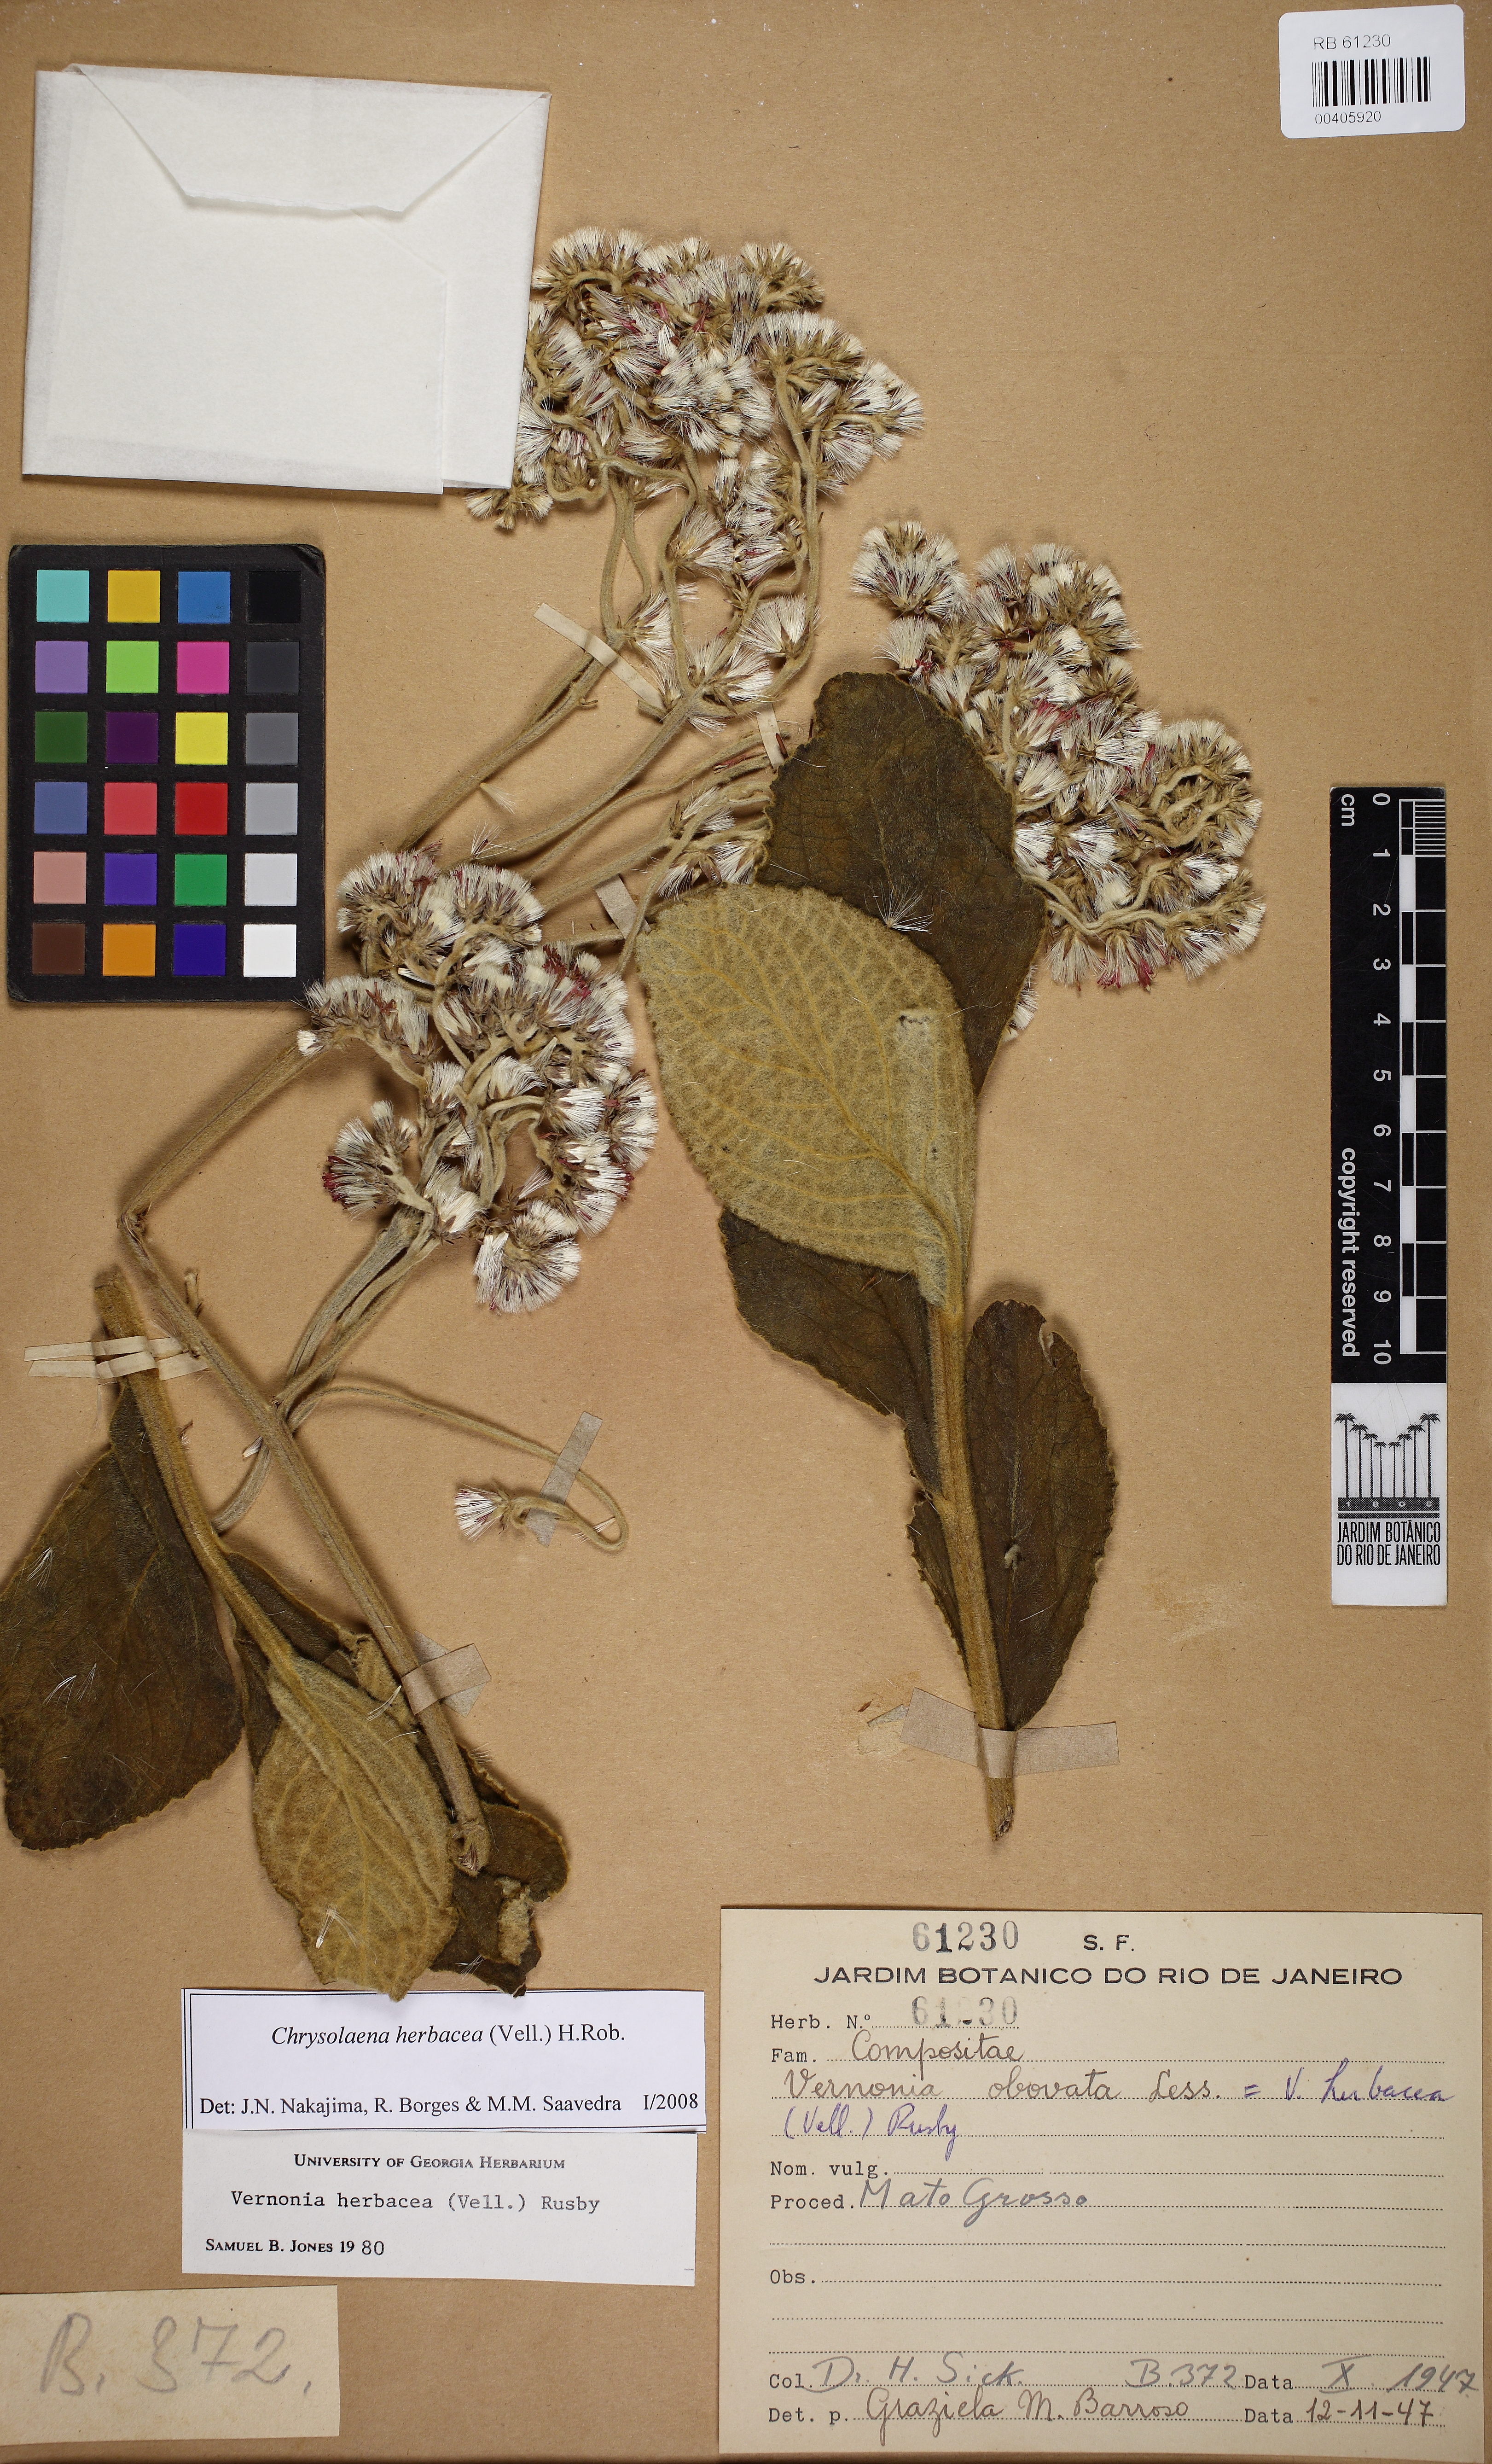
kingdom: Plantae
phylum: Tracheophyta
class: Magnoliopsida
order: Asterales
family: Asteraceae
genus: Chrysolaena
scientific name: Chrysolaena obovata
